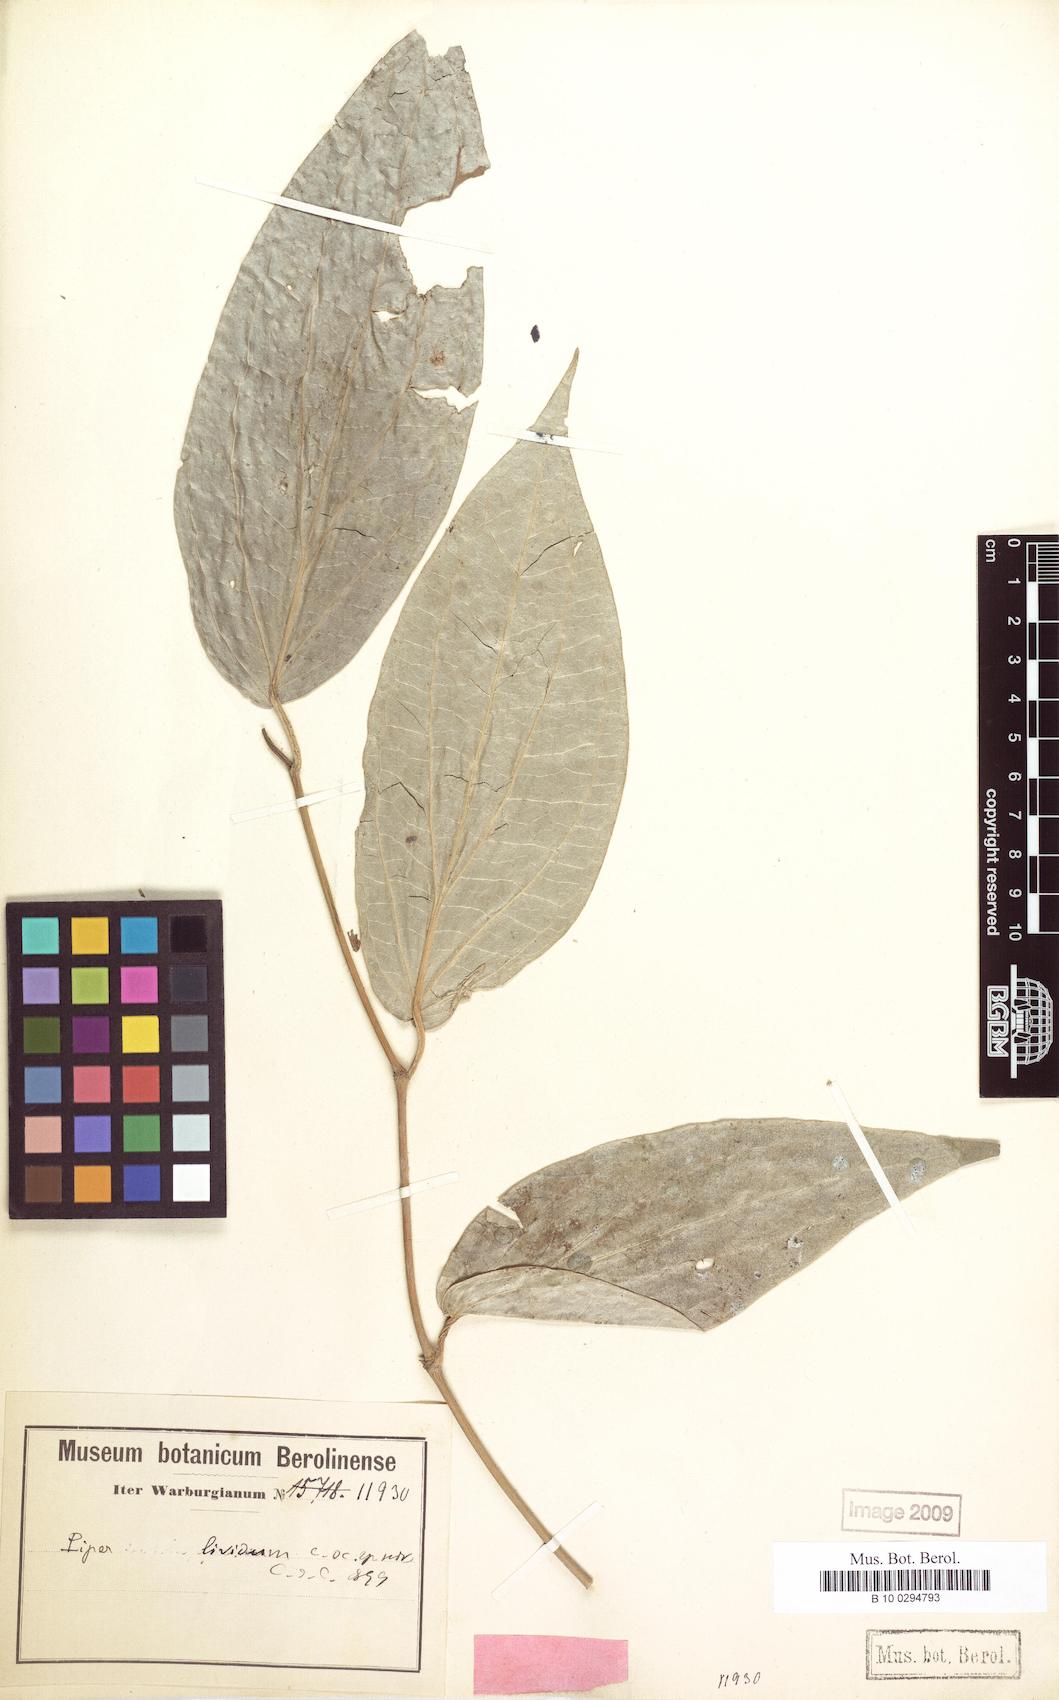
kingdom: Plantae
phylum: Tracheophyta
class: Magnoliopsida
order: Piperales
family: Piperaceae
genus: Piper
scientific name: Piper philippinum
